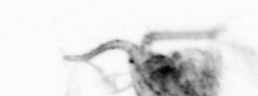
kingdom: Animalia
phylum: Arthropoda
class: Copepoda
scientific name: Copepoda
